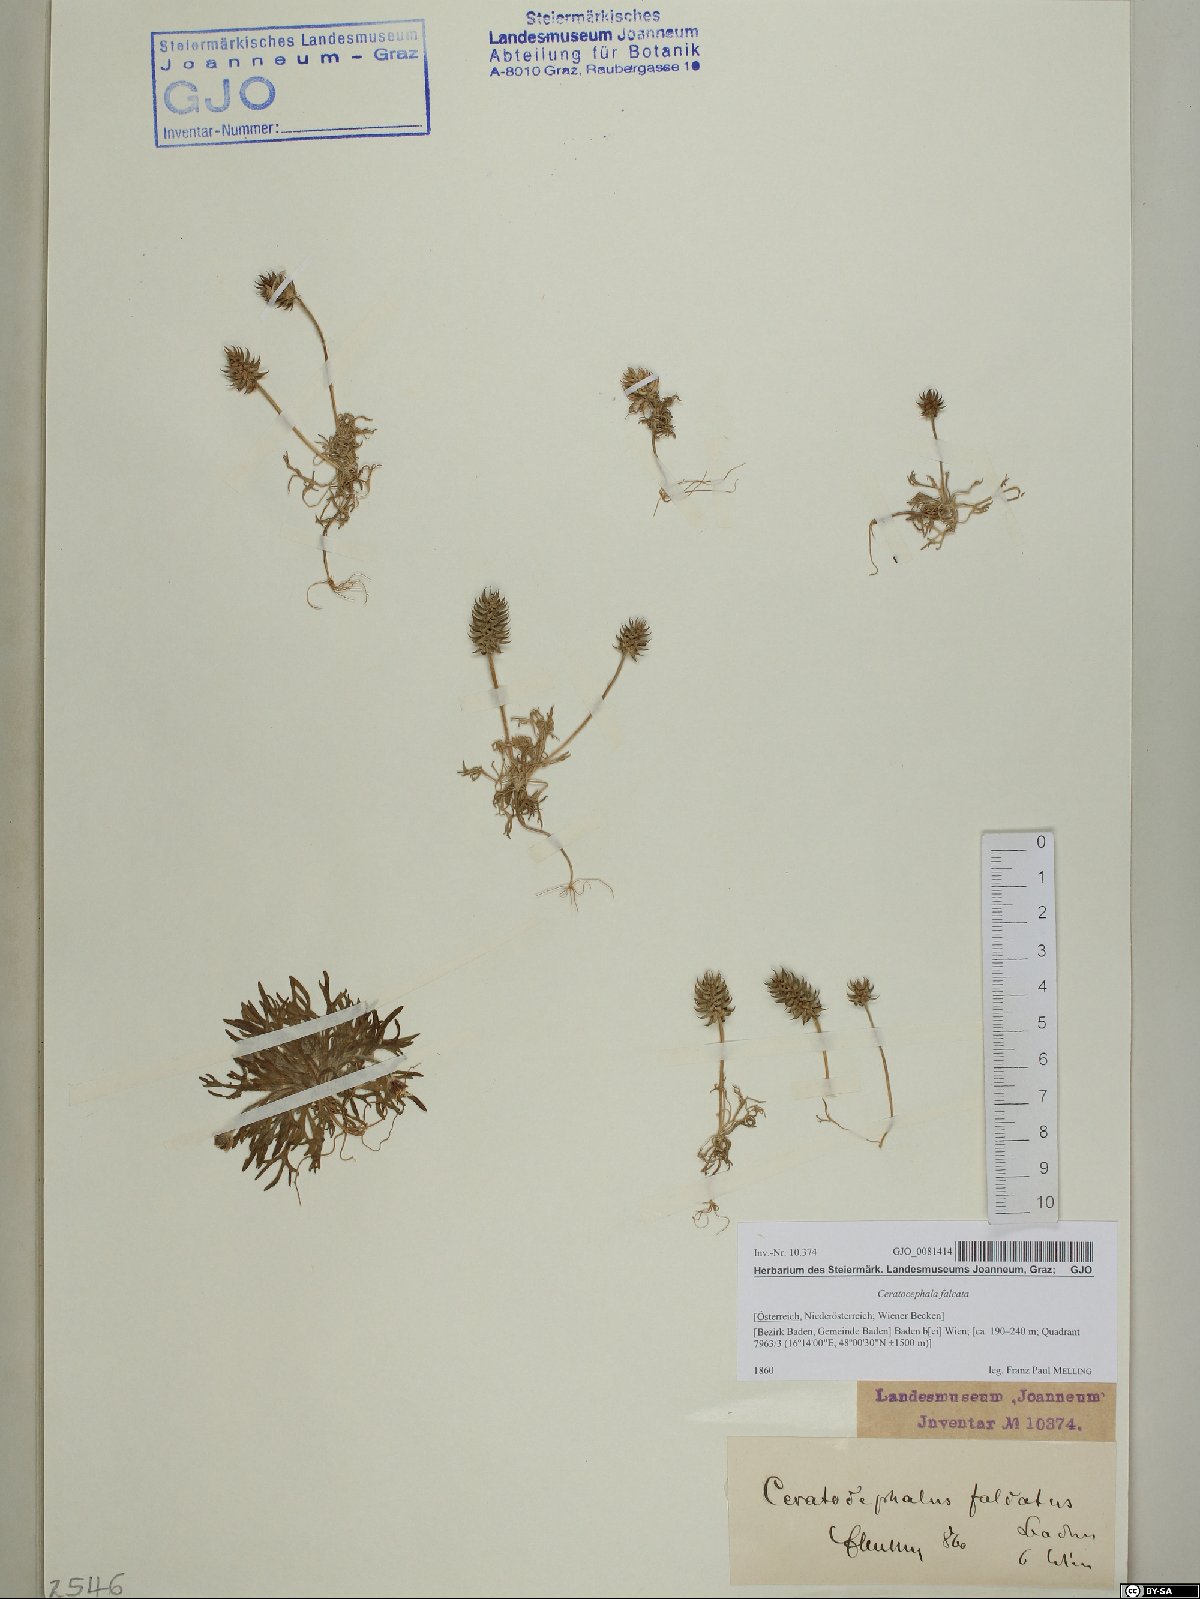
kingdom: Plantae
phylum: Tracheophyta
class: Magnoliopsida
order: Ranunculales
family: Ranunculaceae
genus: Ceratocephala
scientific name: Ceratocephala falcata
